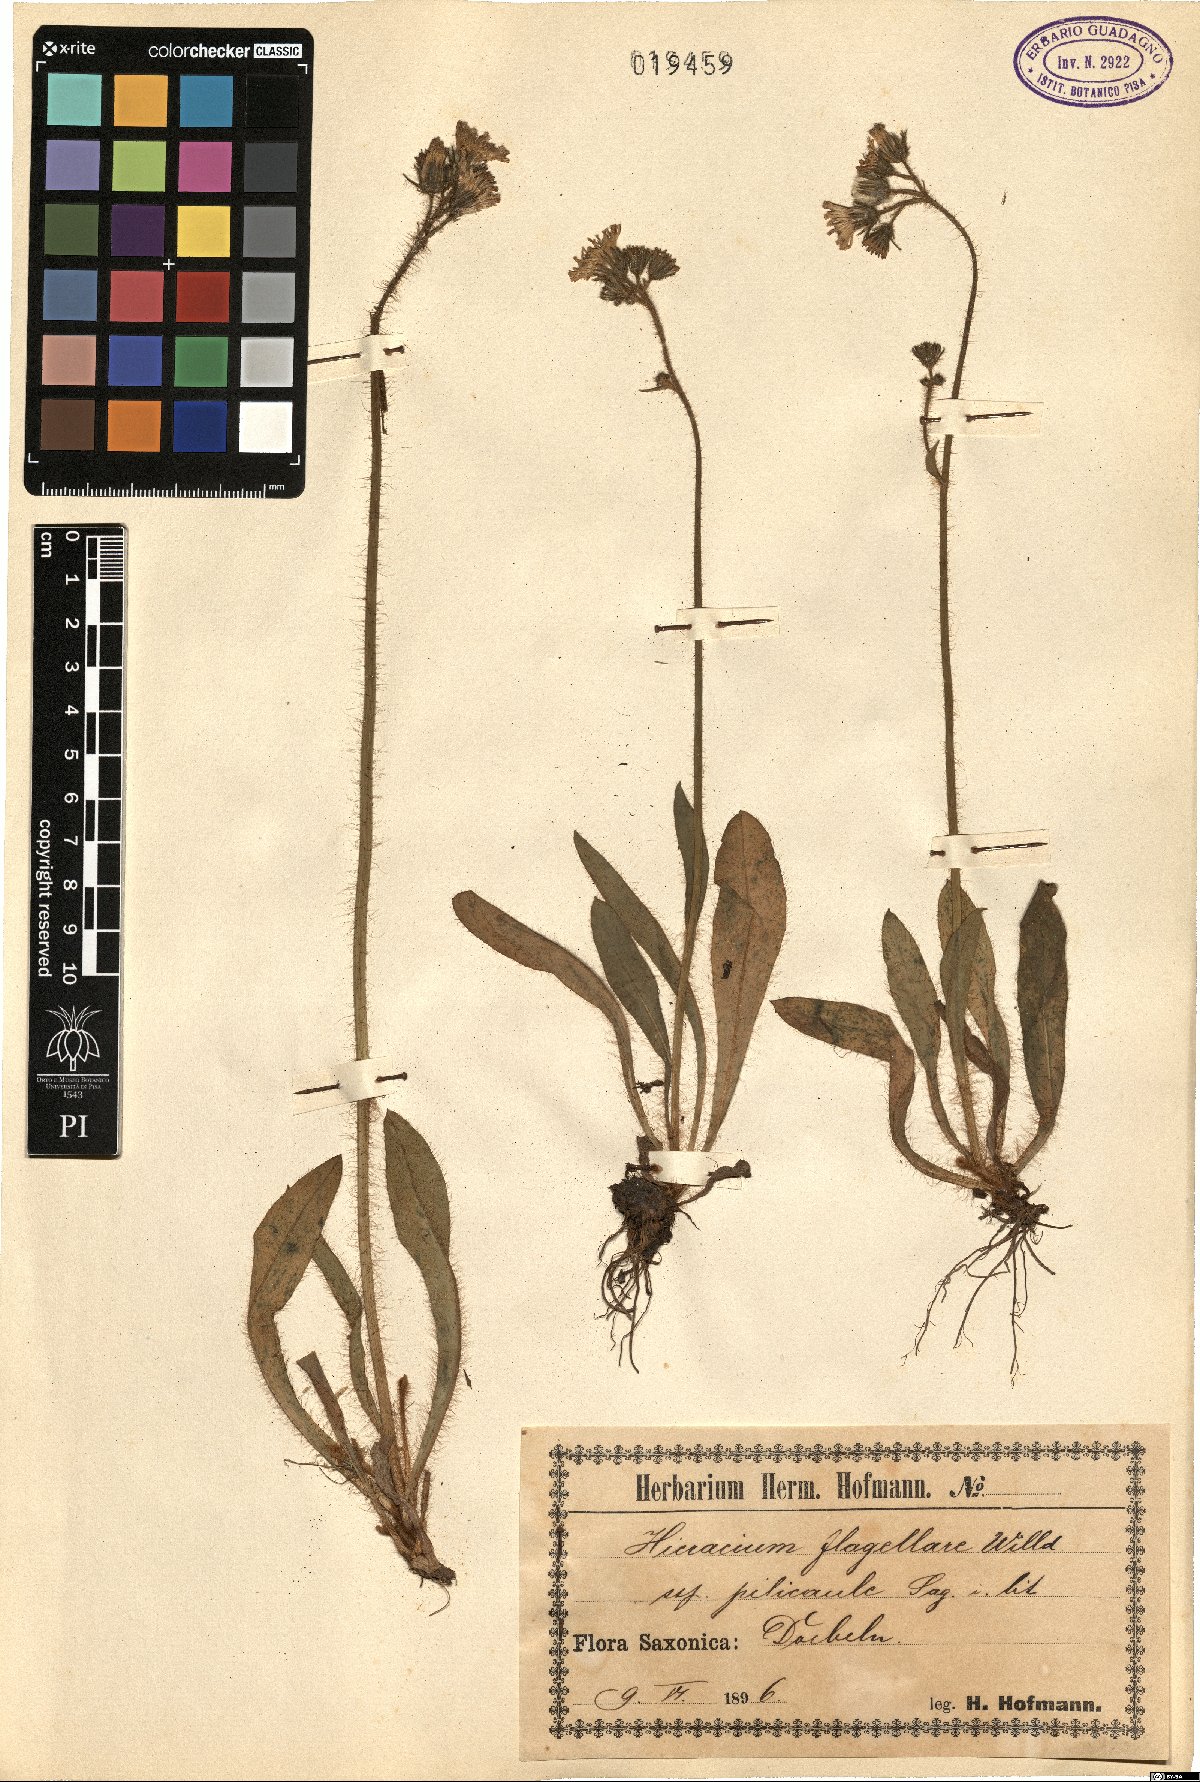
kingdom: Plantae
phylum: Tracheophyta
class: Magnoliopsida
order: Asterales
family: Asteraceae
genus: Pilosella
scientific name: Pilosella
